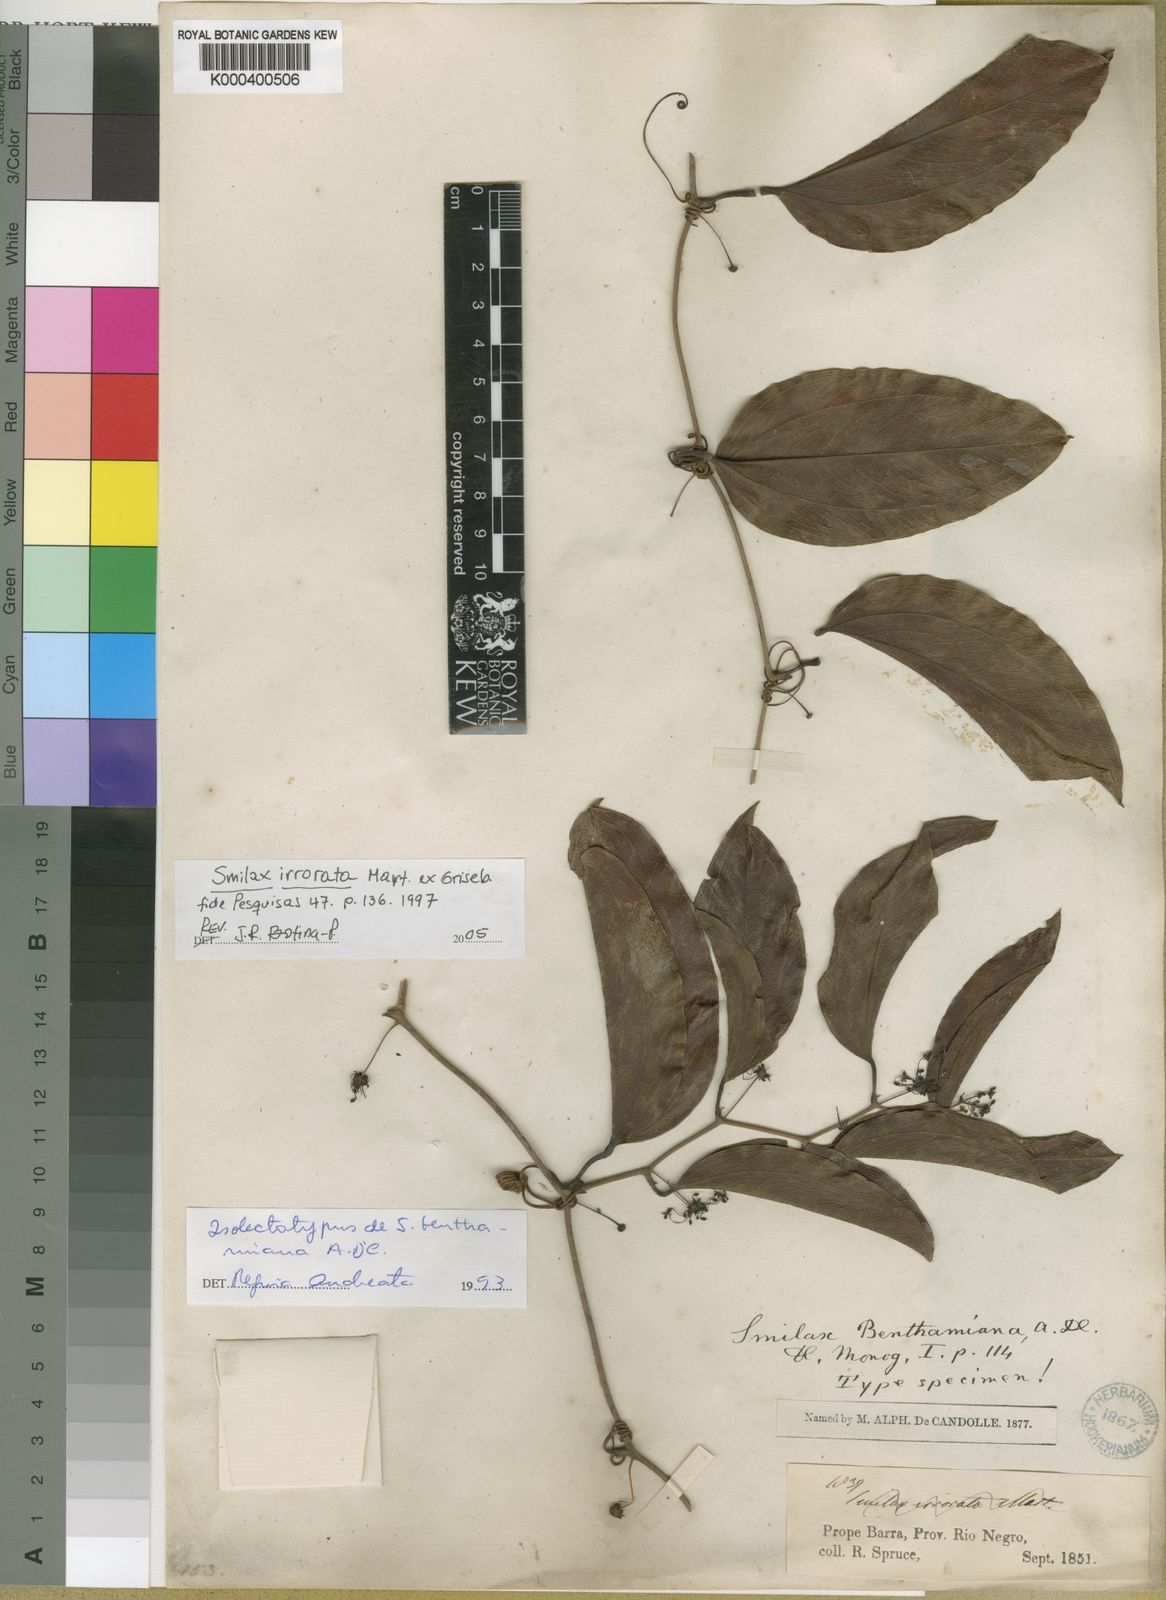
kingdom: Plantae
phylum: Tracheophyta
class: Liliopsida
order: Liliales
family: Smilacaceae
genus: Smilax
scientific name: Smilax irrorata
